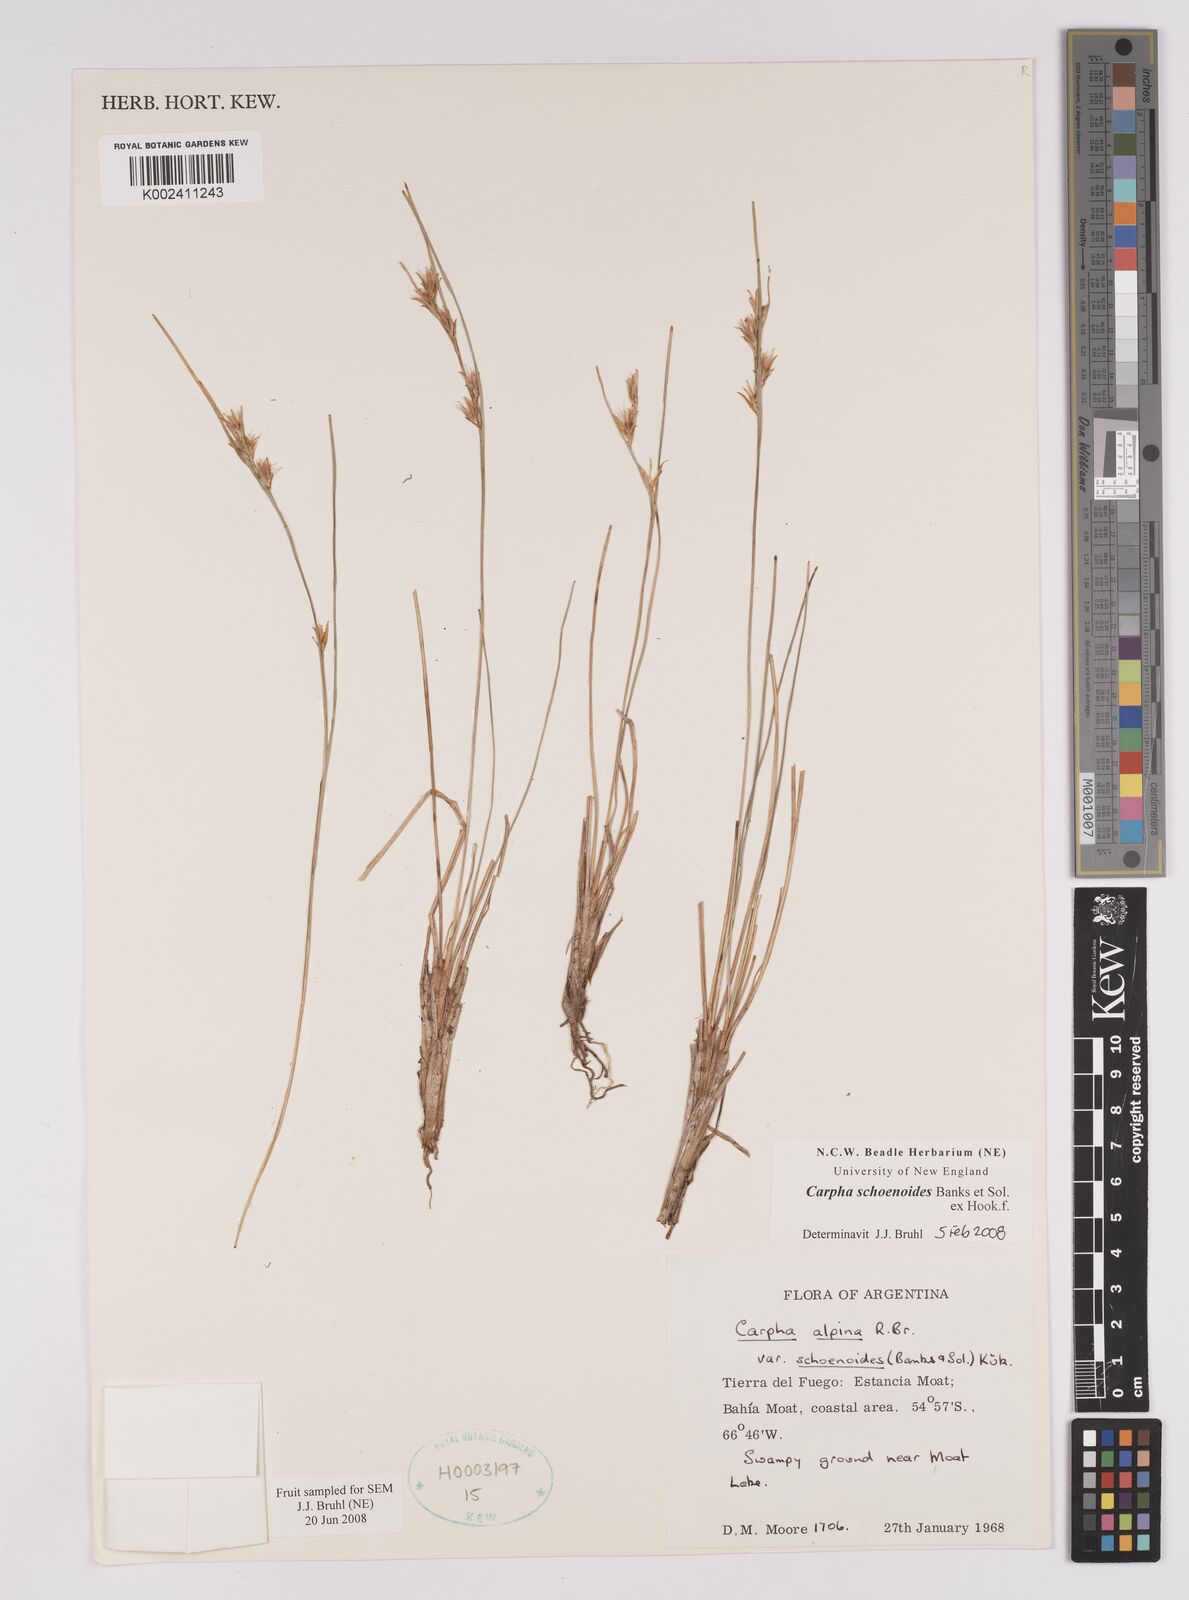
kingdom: Plantae
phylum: Tracheophyta
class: Liliopsida
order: Poales
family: Cyperaceae
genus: Carpha
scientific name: Carpha schoenoides
